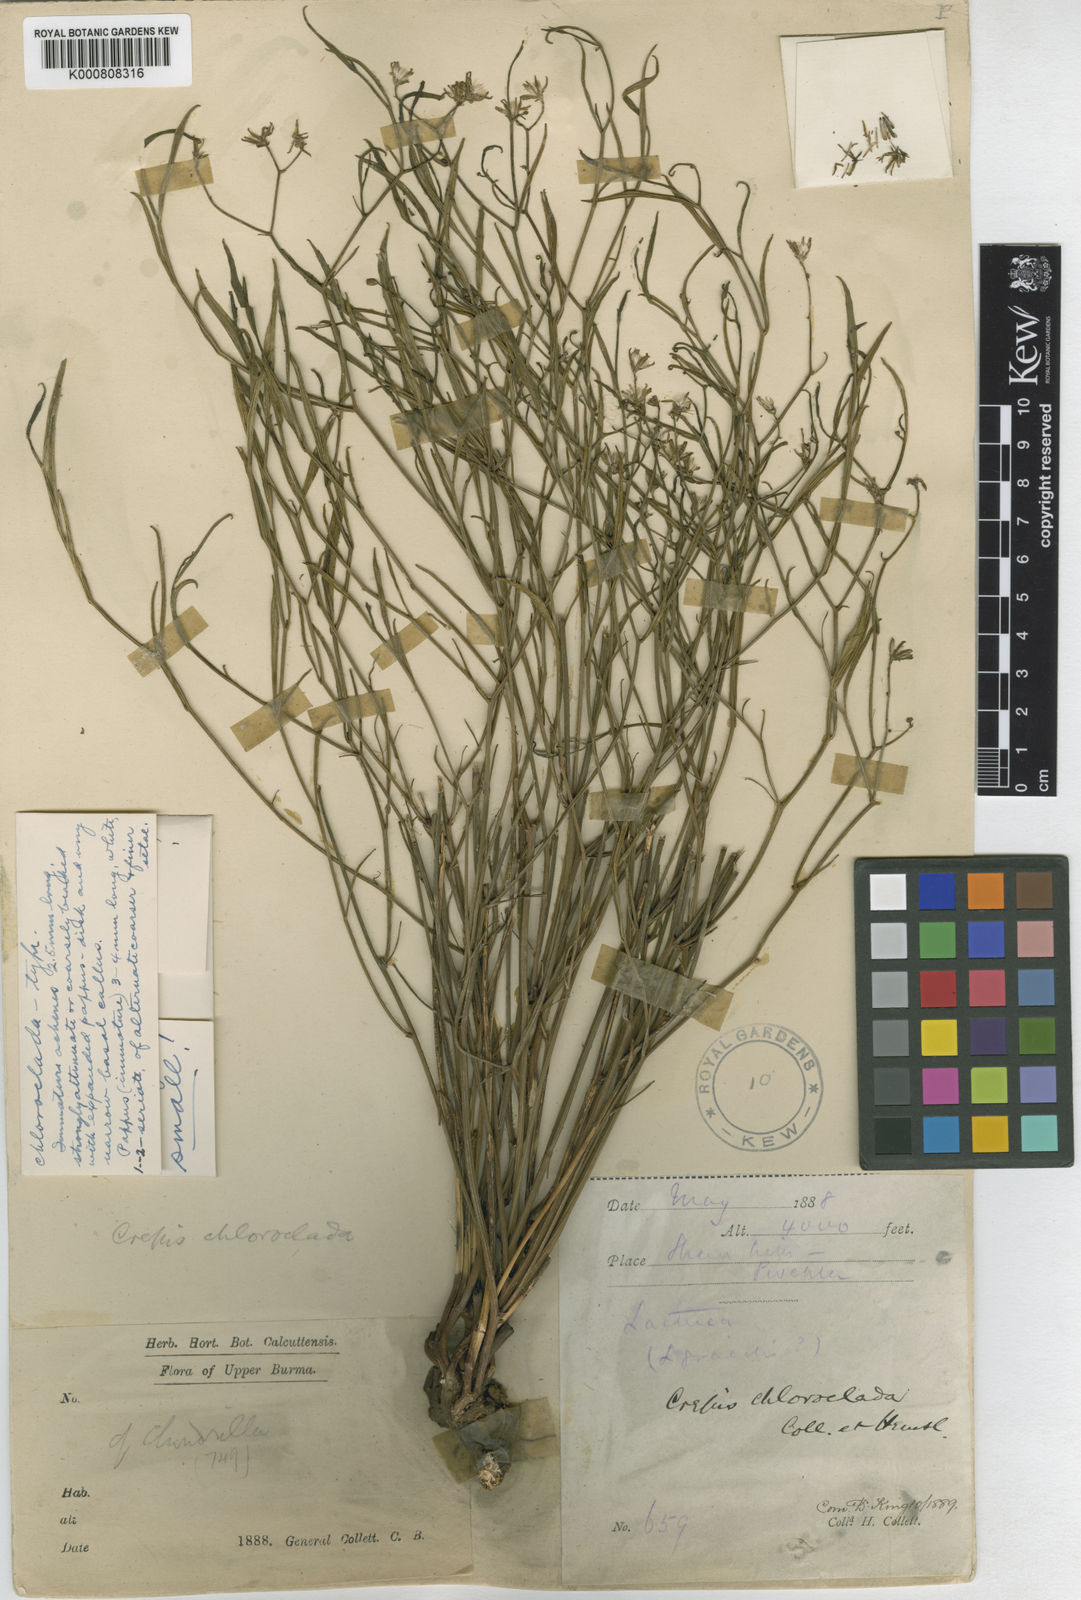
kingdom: Plantae
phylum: Tracheophyta
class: Magnoliopsida
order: Asterales
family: Asteraceae
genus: Crepis
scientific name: Crepis chloroclada
